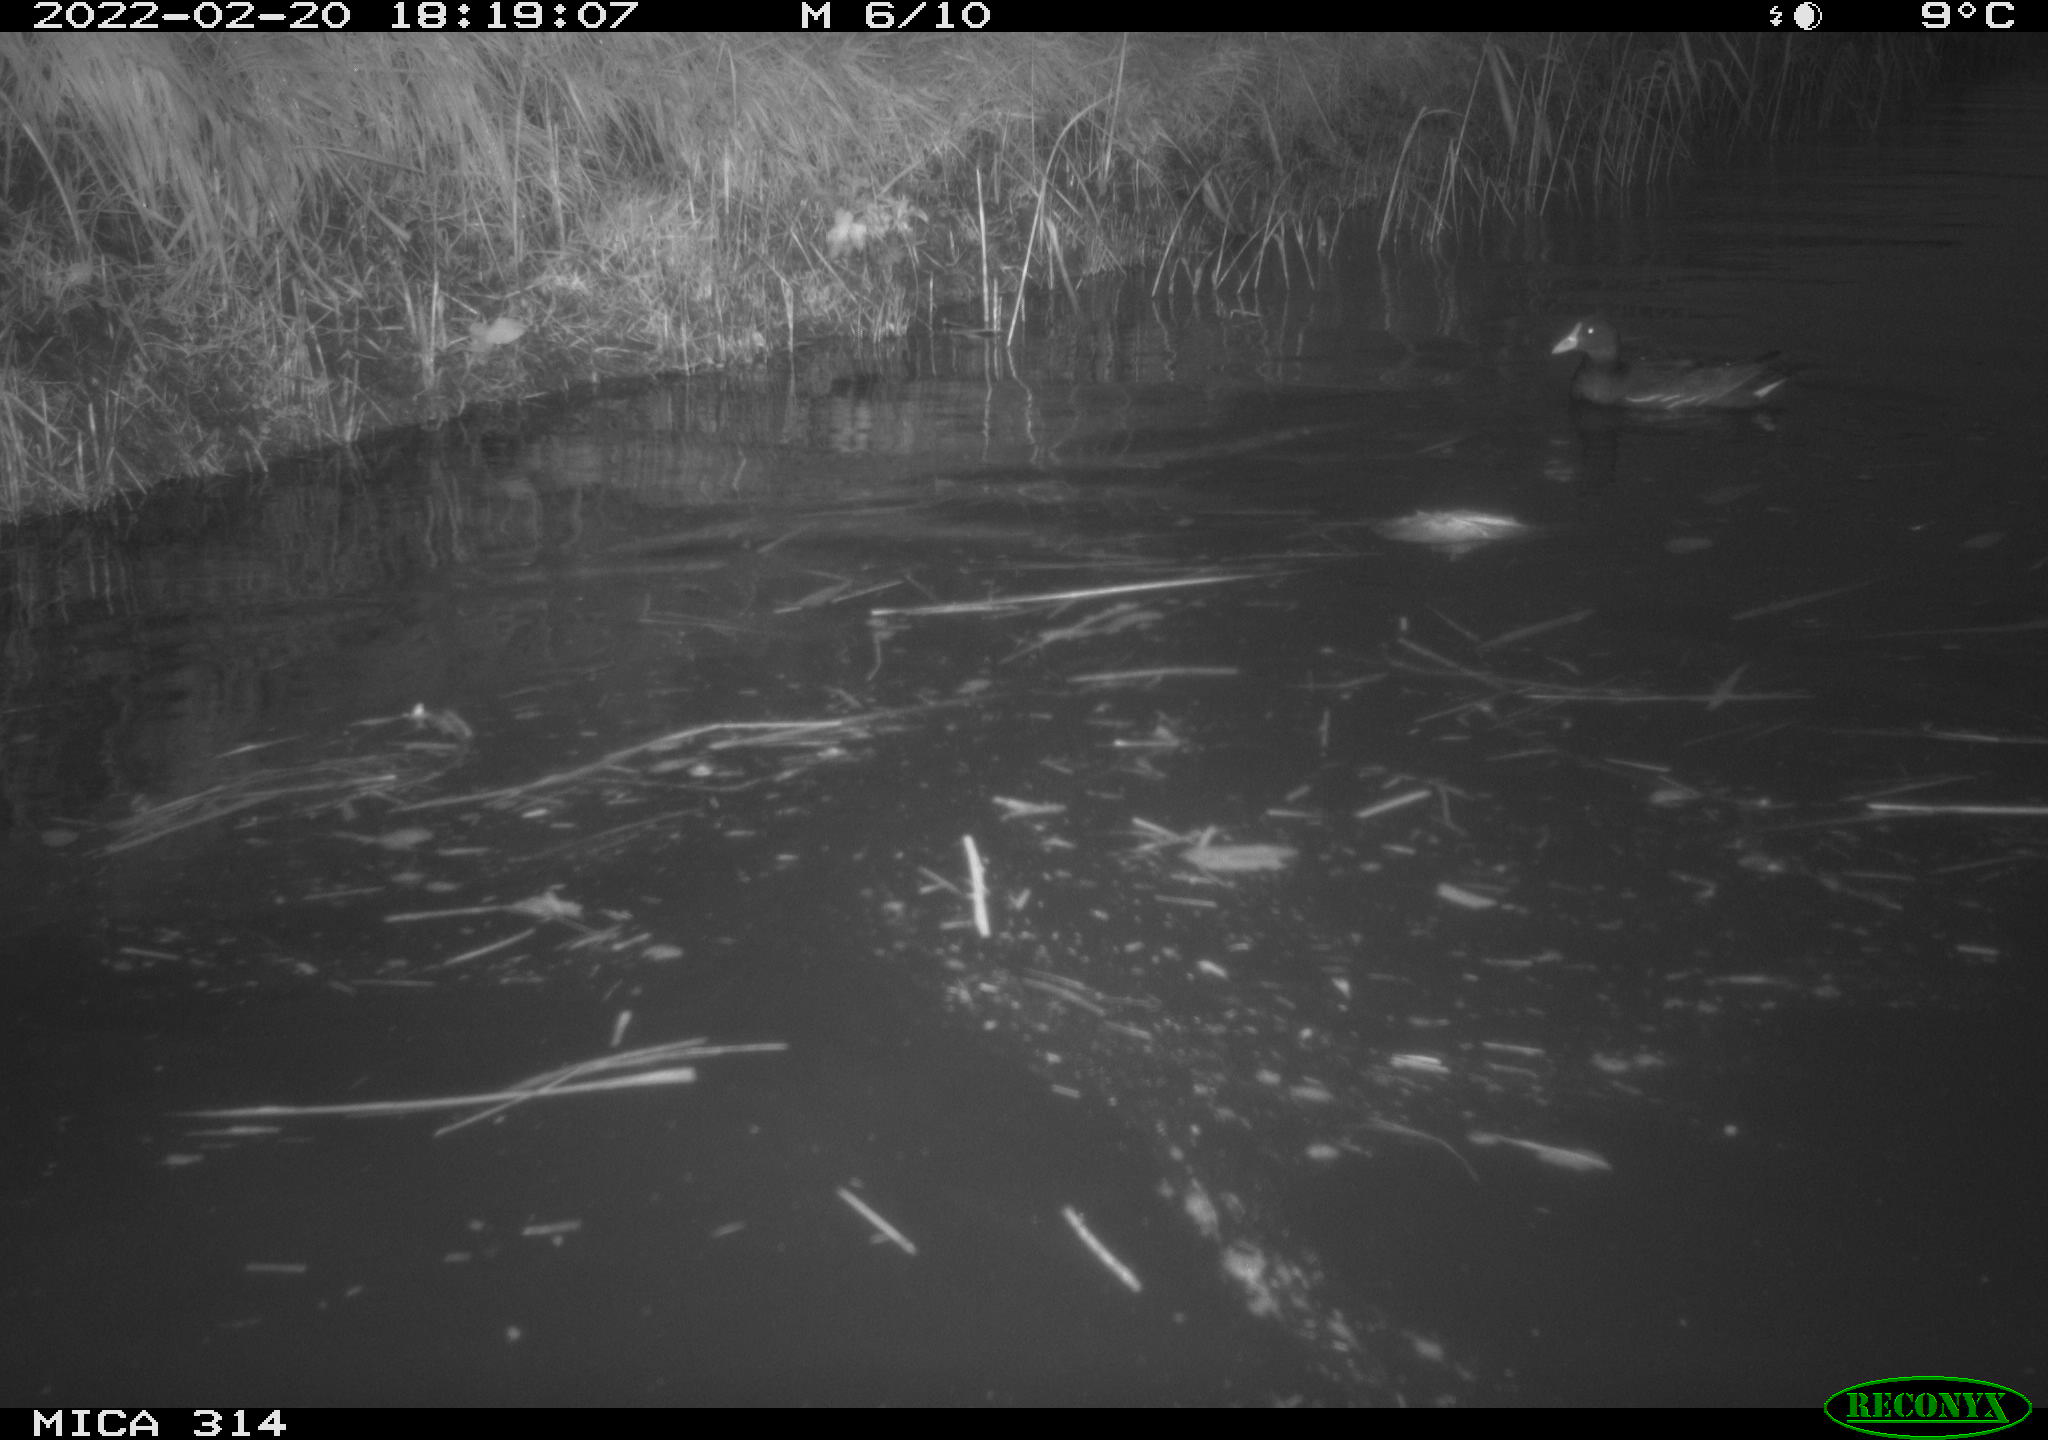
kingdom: Animalia
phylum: Chordata
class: Aves
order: Gruiformes
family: Rallidae
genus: Gallinula
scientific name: Gallinula chloropus
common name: Common moorhen
